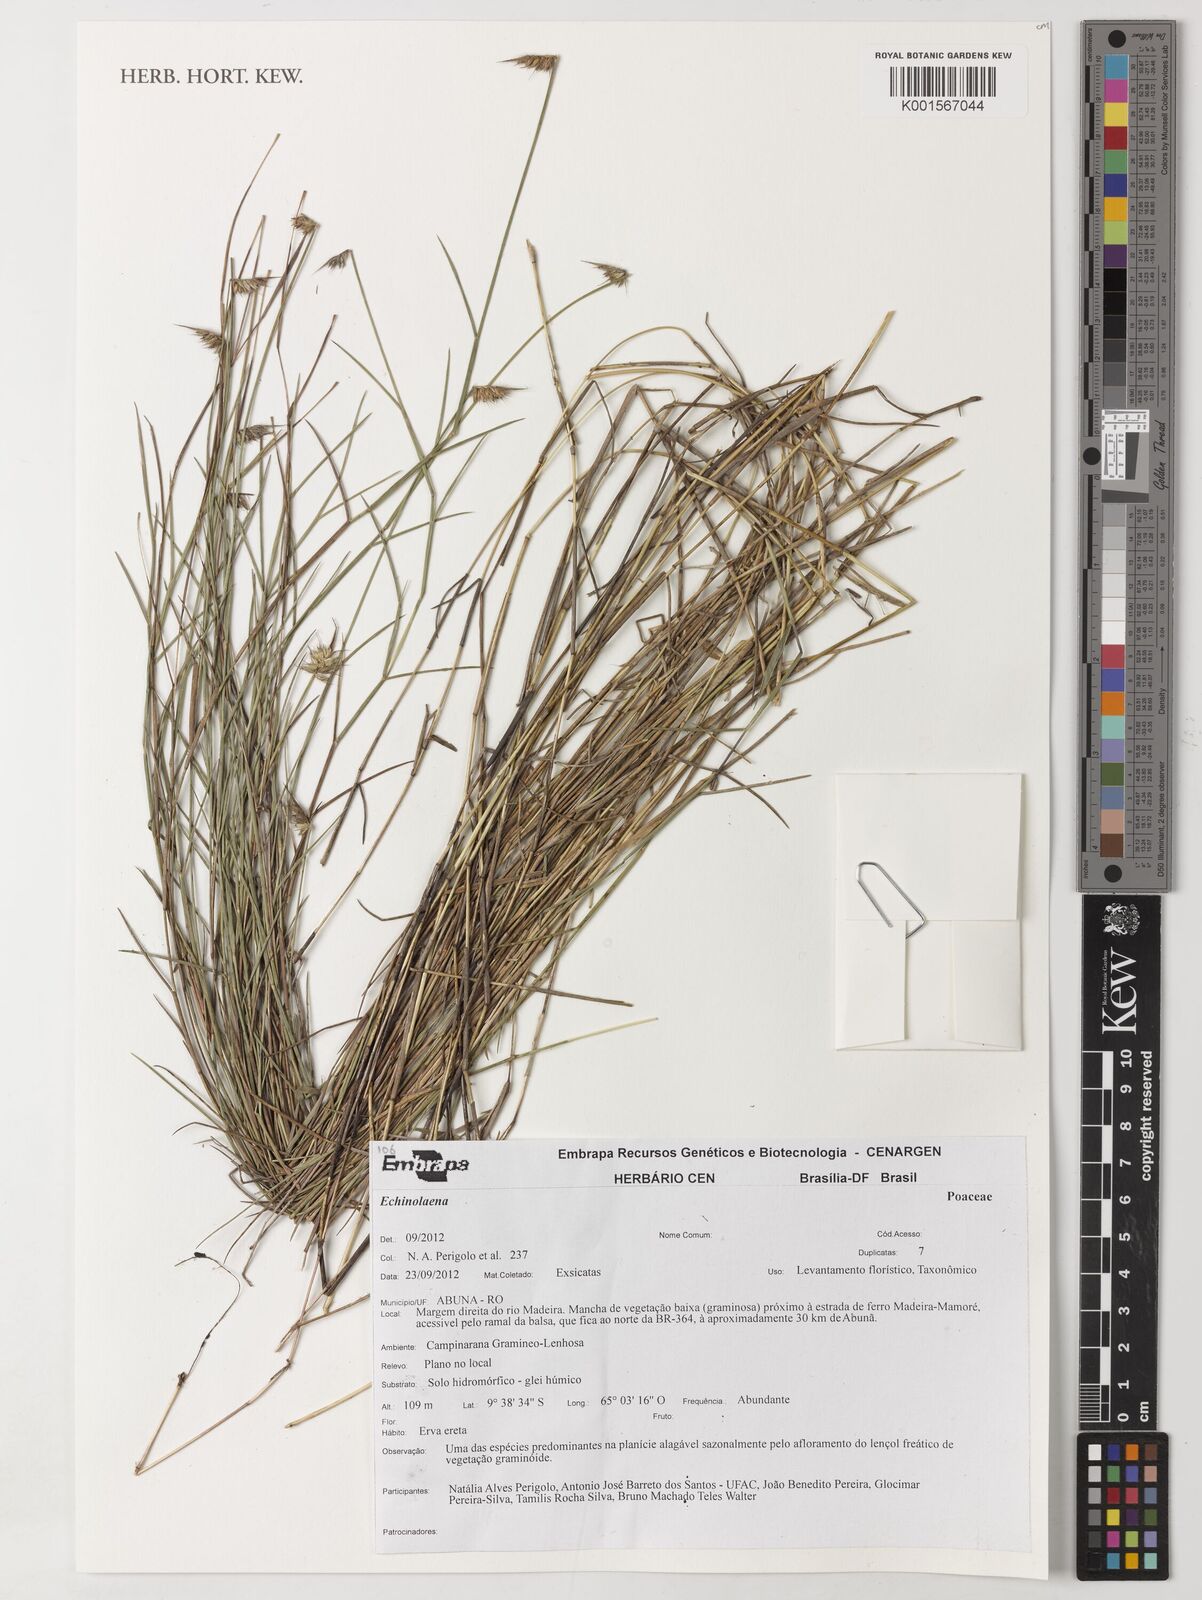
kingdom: Plantae
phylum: Tracheophyta
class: Liliopsida
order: Poales
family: Poaceae
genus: Echinolaena
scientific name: Echinolaena
